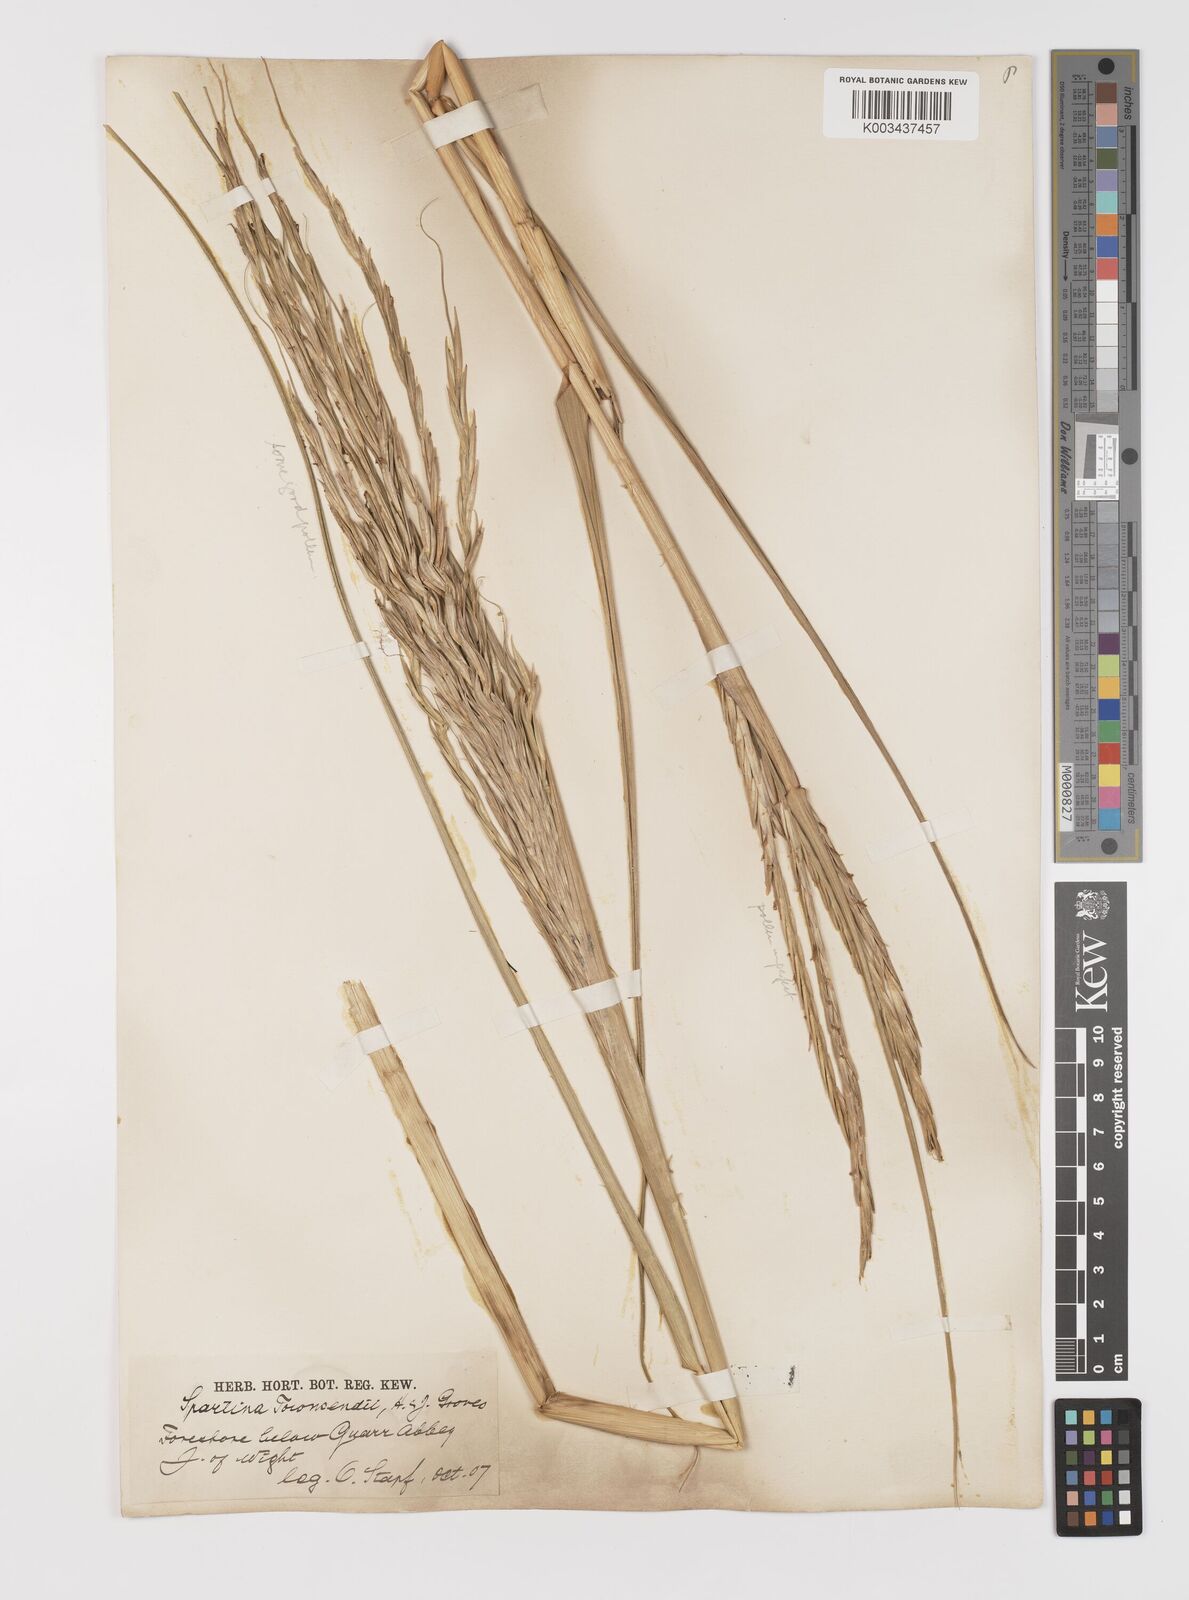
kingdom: Plantae
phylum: Tracheophyta
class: Liliopsida
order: Poales
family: Poaceae
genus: Sporobolus
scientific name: Sporobolus anglicus
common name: English cordgrass
